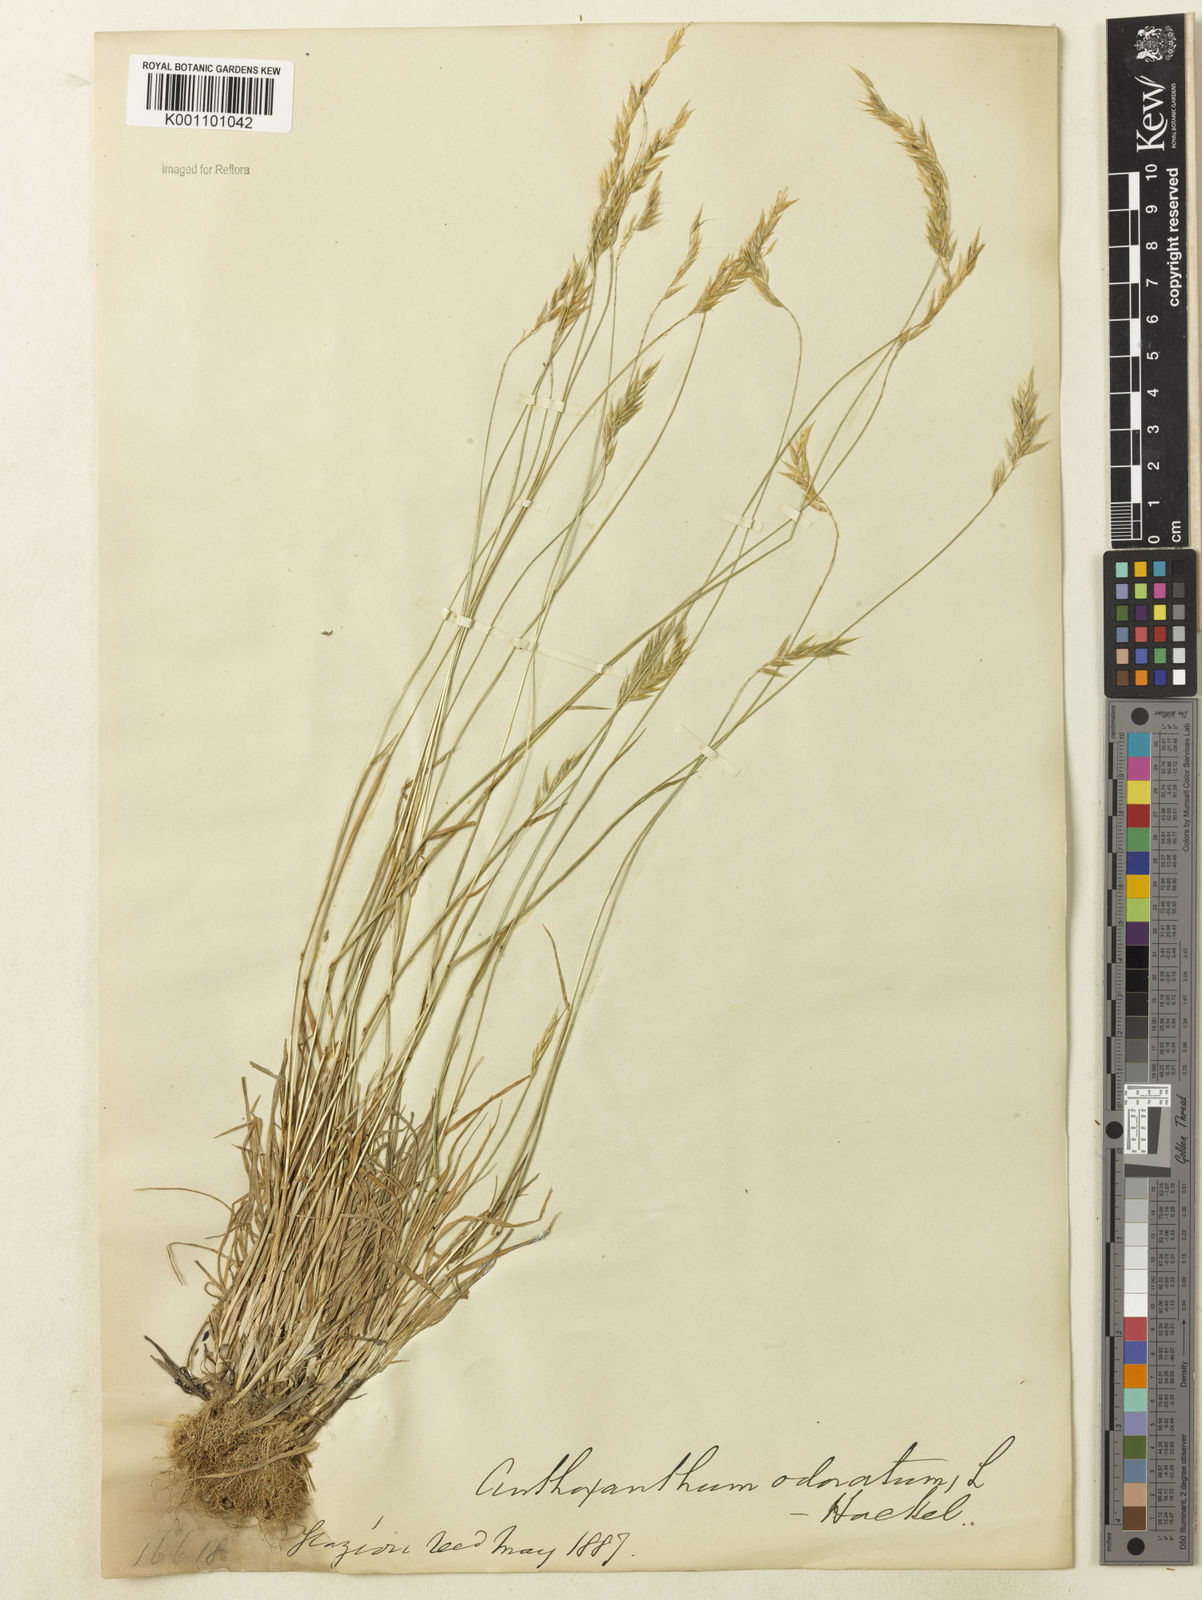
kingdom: Plantae
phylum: Tracheophyta
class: Liliopsida
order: Poales
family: Poaceae
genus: Anthoxanthum
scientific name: Anthoxanthum odoratum
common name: Sweet vernalgrass
